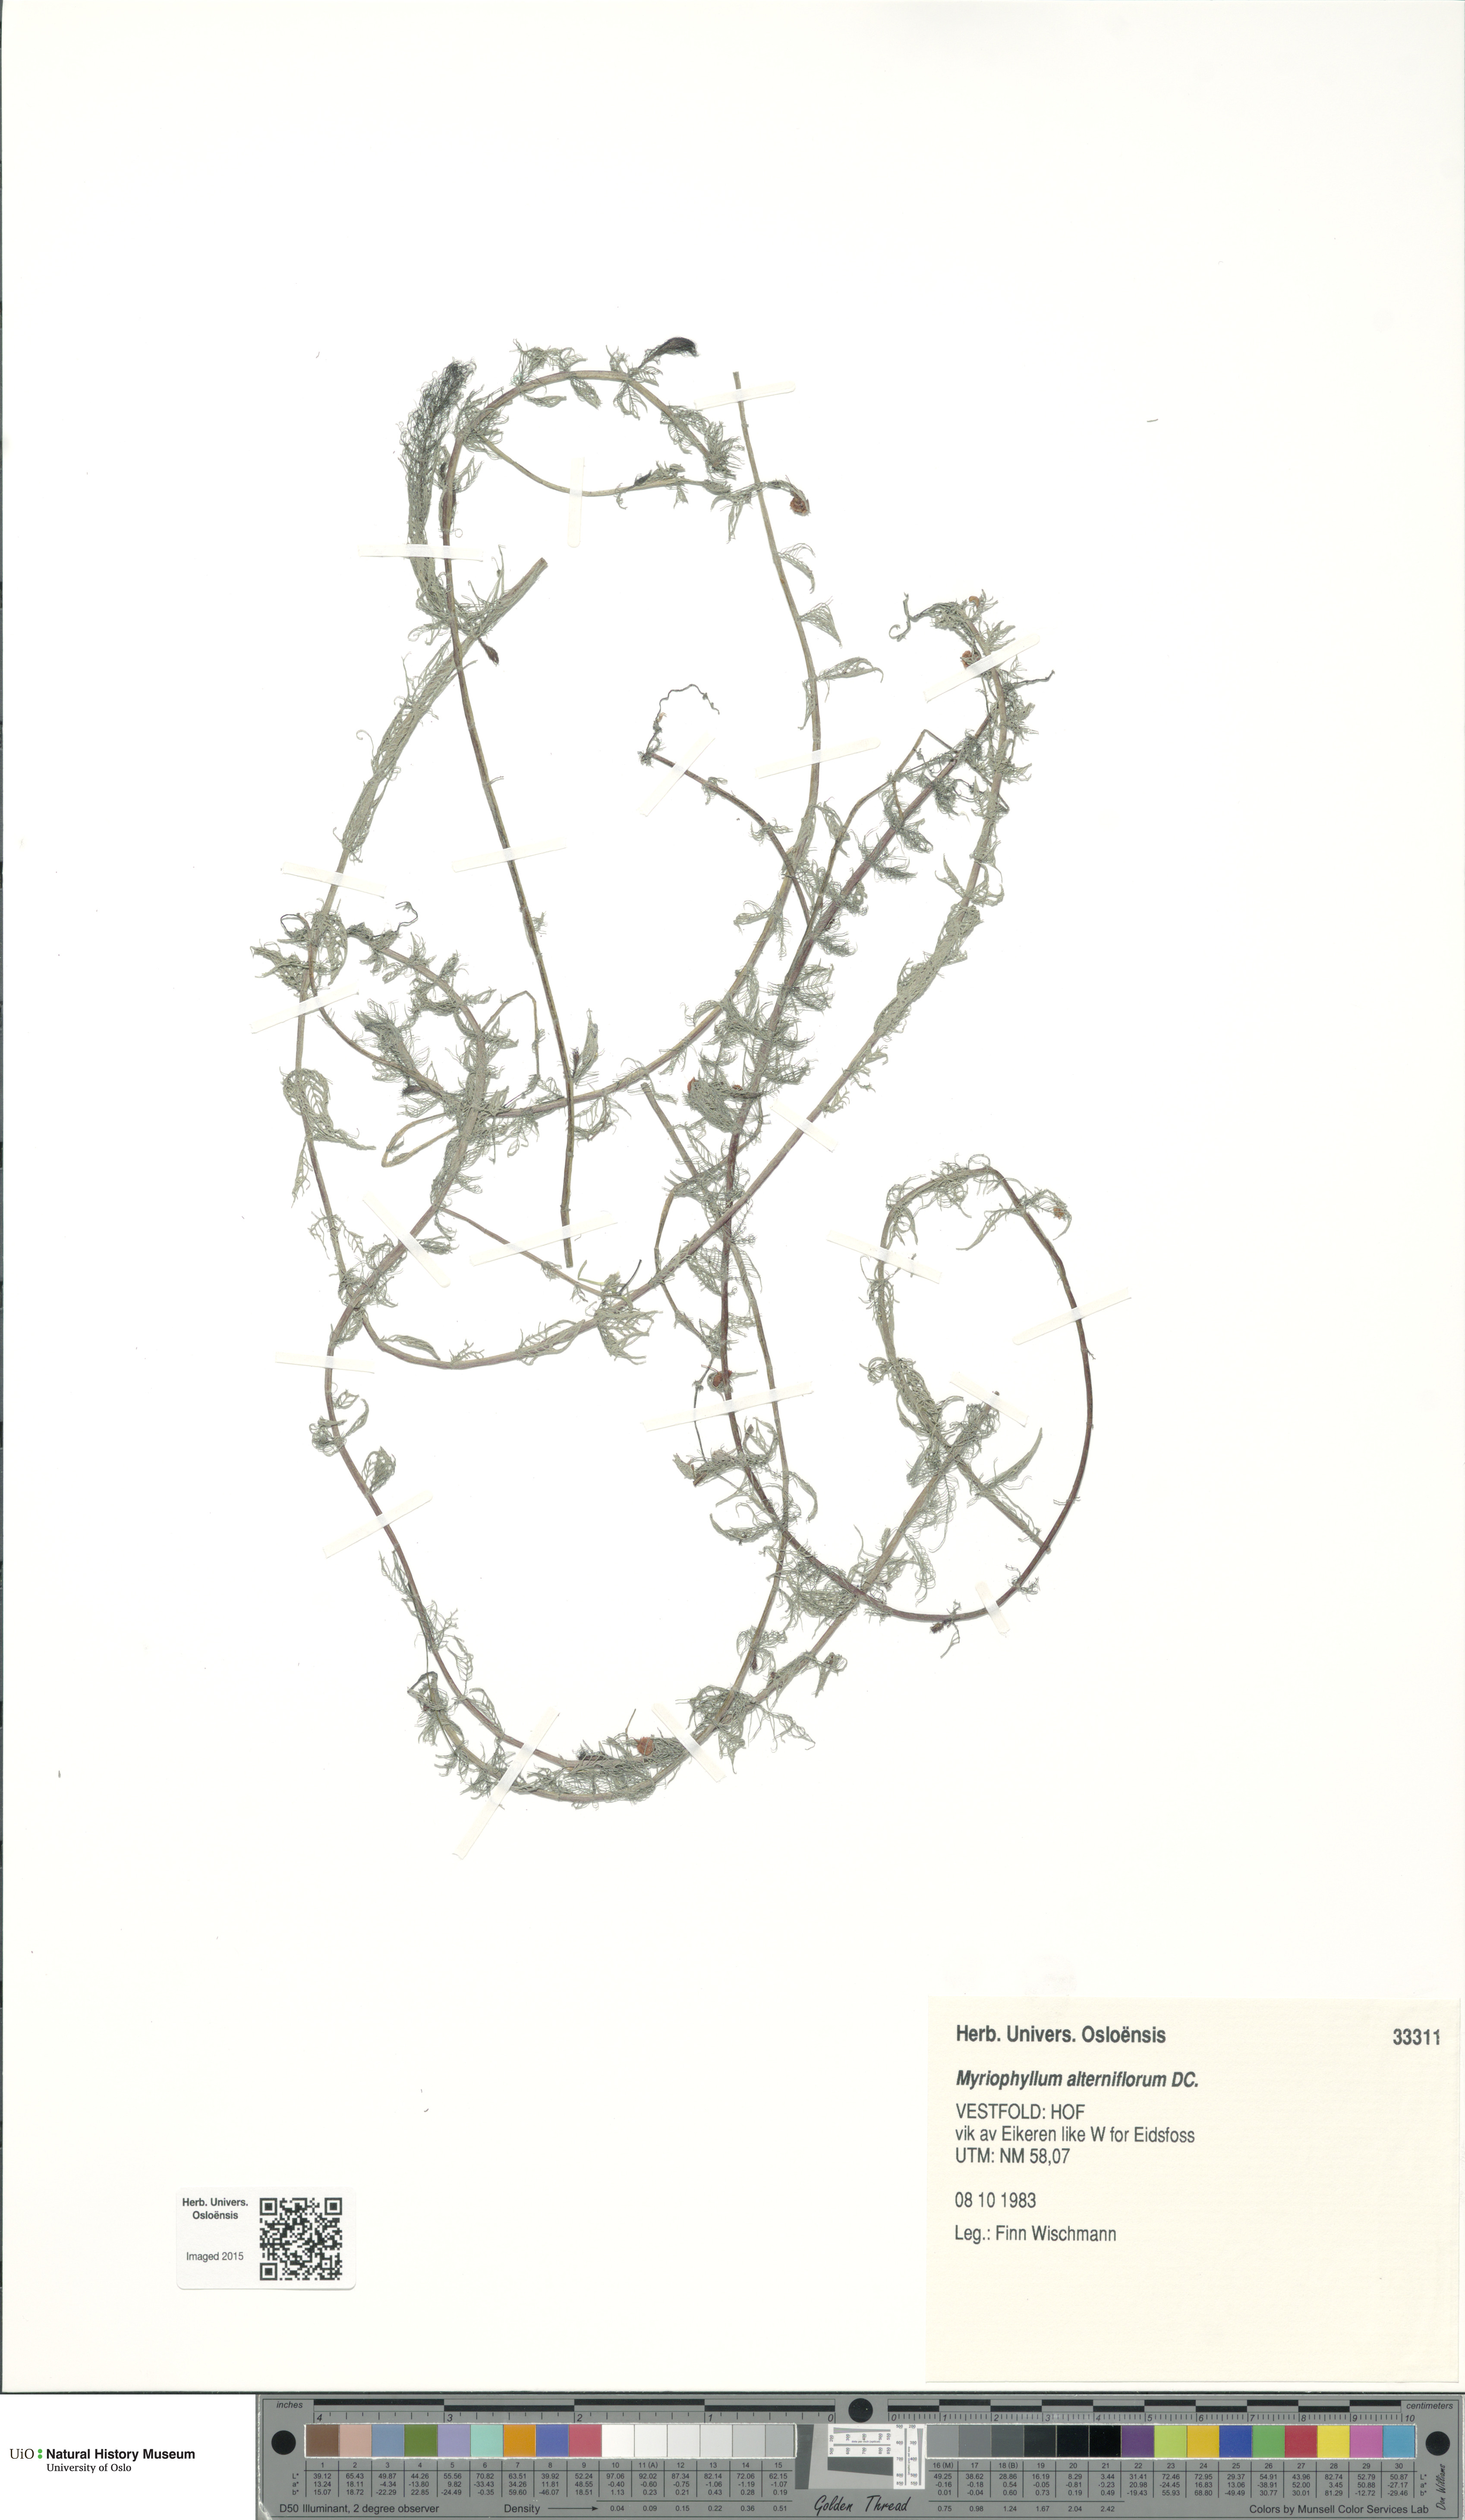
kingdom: Plantae
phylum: Tracheophyta
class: Magnoliopsida
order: Saxifragales
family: Haloragaceae
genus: Myriophyllum
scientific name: Myriophyllum alterniflorum
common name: Alternate water-milfoil
